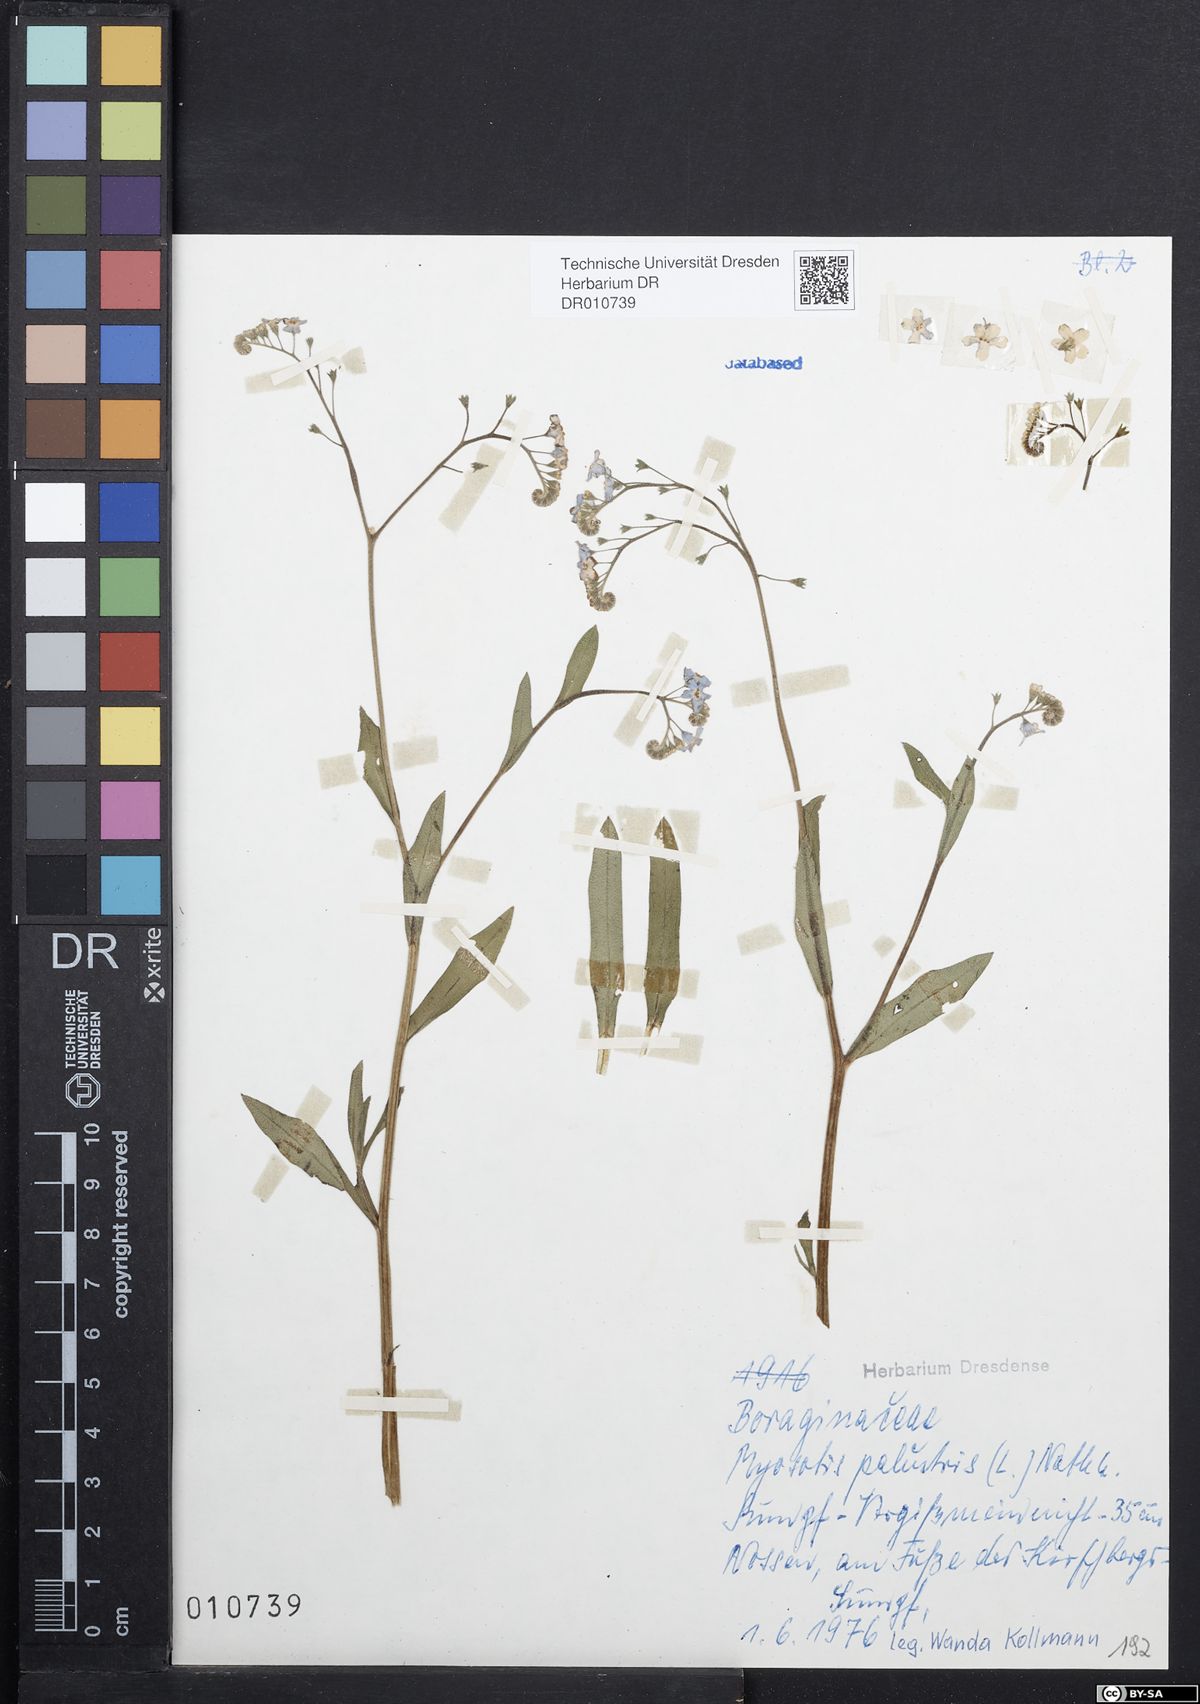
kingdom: Plantae
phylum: Tracheophyta
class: Magnoliopsida
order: Boraginales
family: Boraginaceae
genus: Myosotis
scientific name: Myosotis scorpioides
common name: Water forget-me-not
